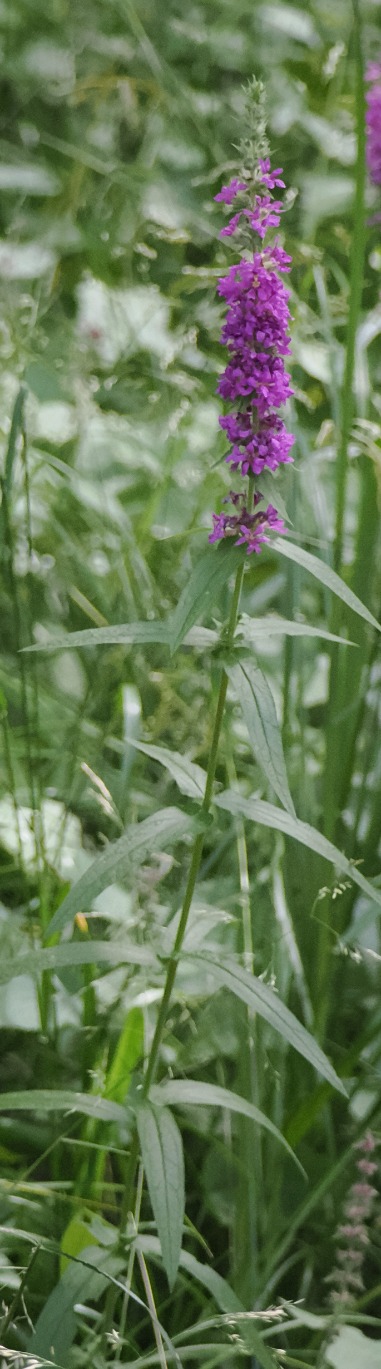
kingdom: Plantae
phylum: Tracheophyta
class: Magnoliopsida
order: Myrtales
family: Lythraceae
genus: Lythrum
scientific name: Lythrum salicaria
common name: Kattehale
